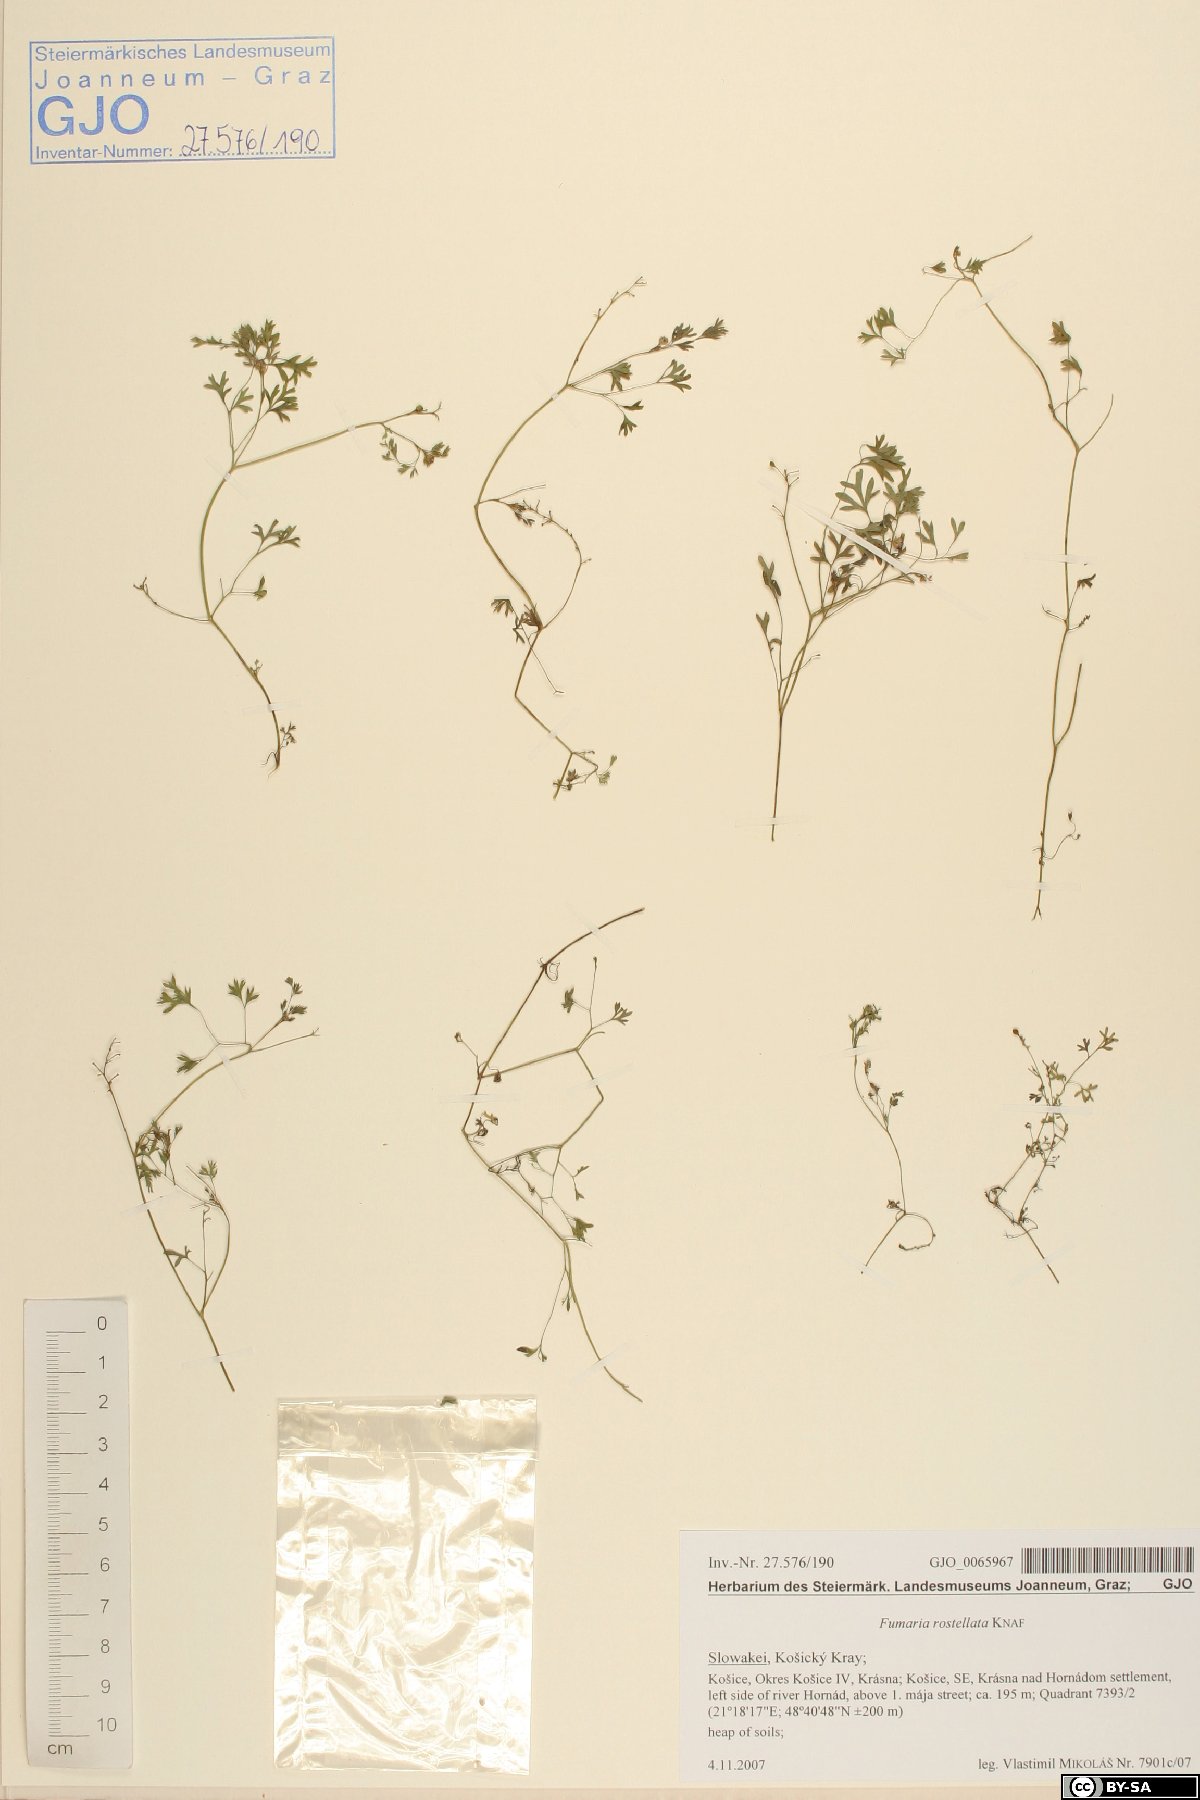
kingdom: Plantae
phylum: Tracheophyta
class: Magnoliopsida
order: Ranunculales
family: Papaveraceae
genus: Fumaria
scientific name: Fumaria rostellata
